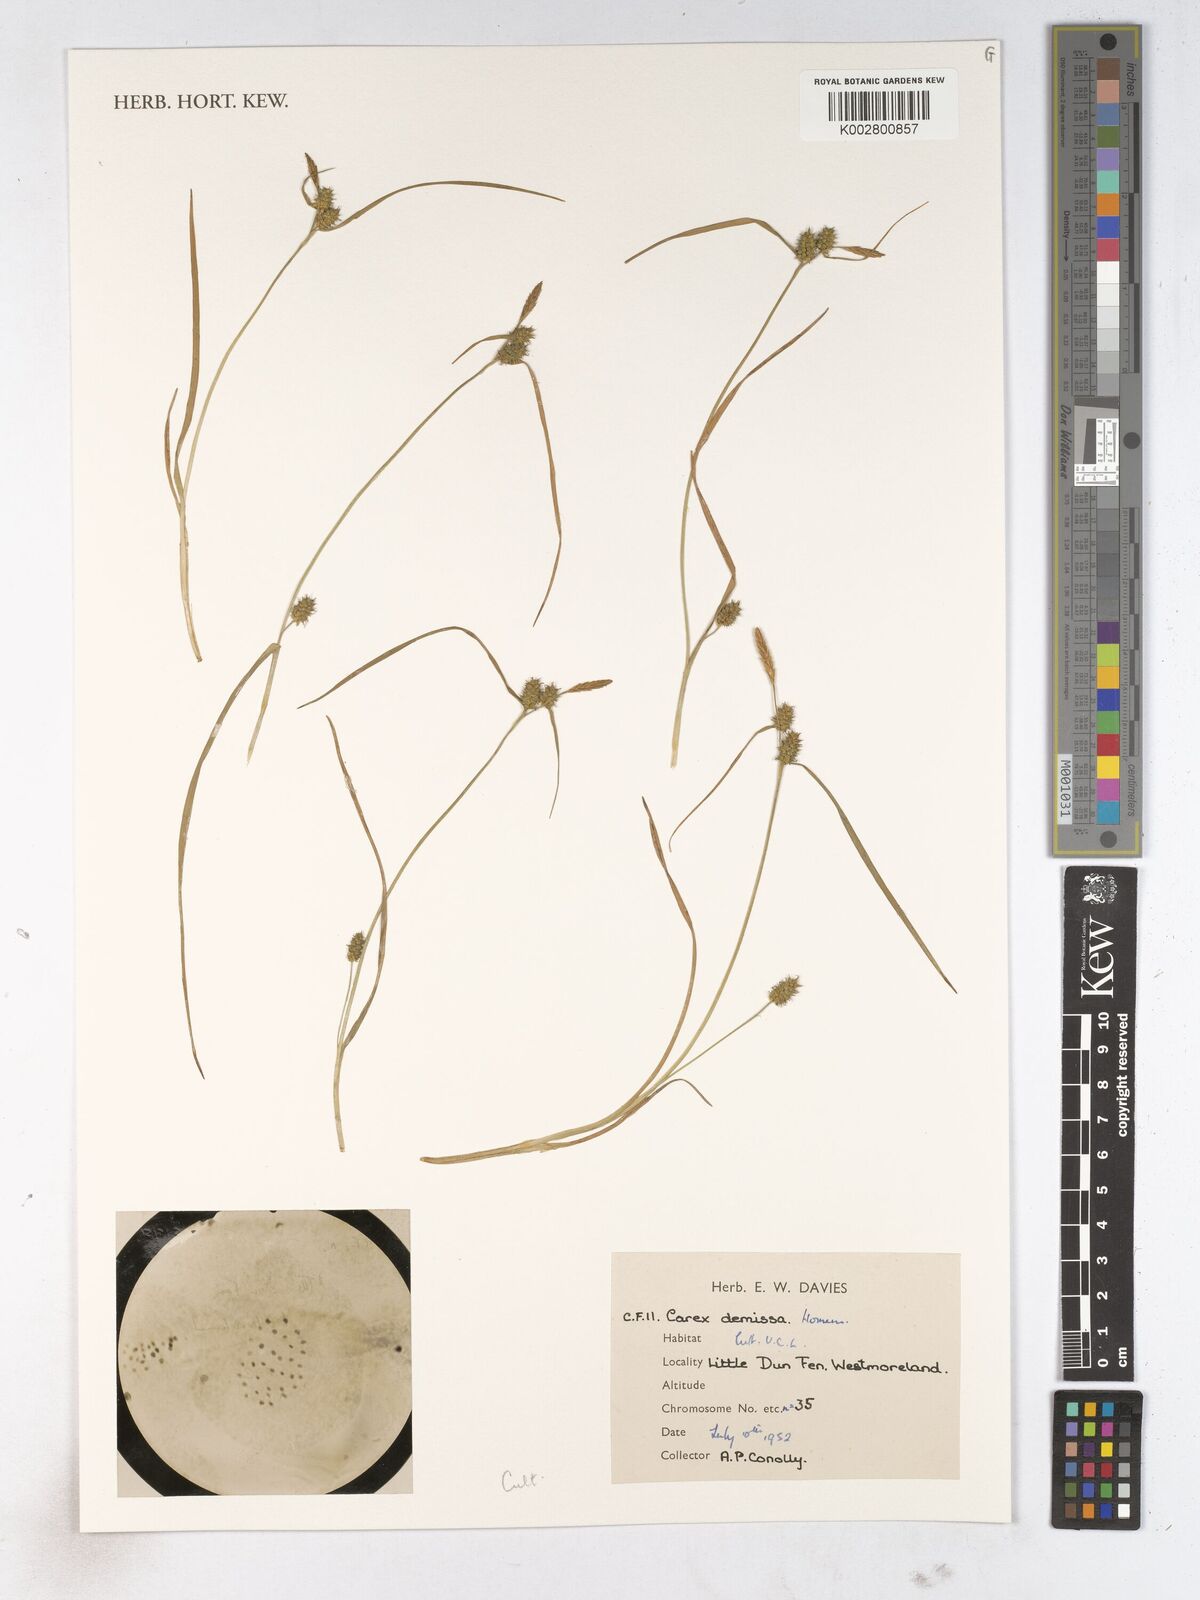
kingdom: Plantae
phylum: Tracheophyta
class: Liliopsida
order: Poales
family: Cyperaceae
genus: Carex
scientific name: Carex demissa
